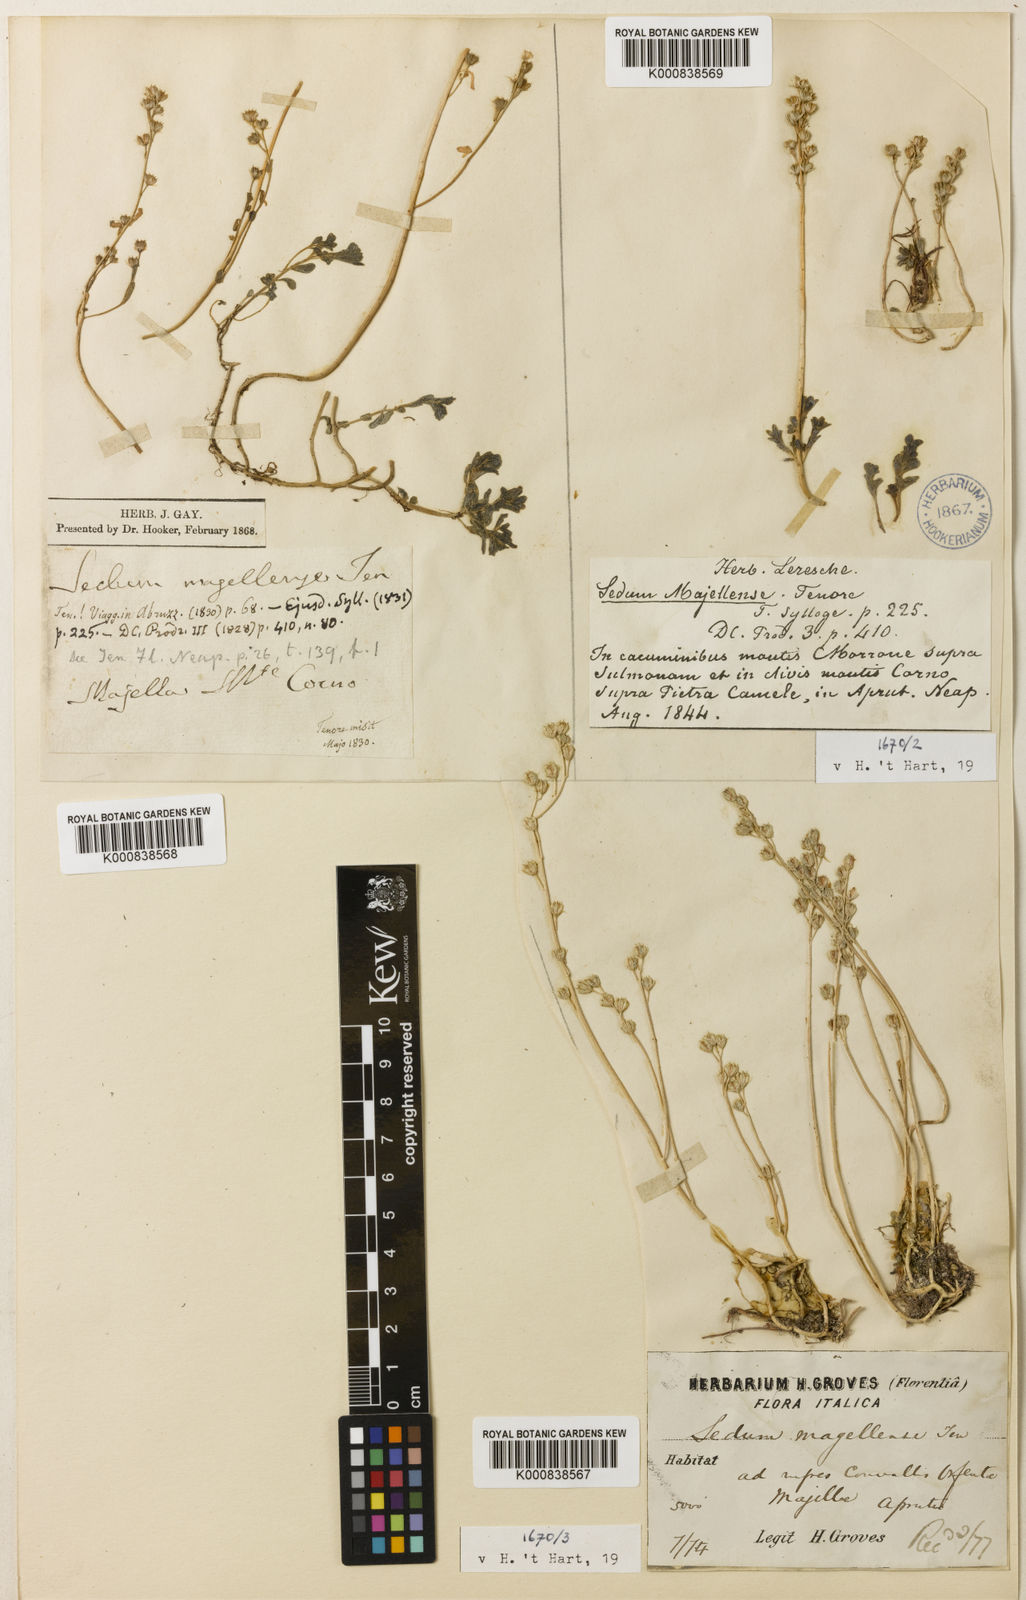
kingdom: Plantae
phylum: Tracheophyta
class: Magnoliopsida
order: Saxifragales
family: Crassulaceae
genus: Sedum
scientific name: Sedum magellense
